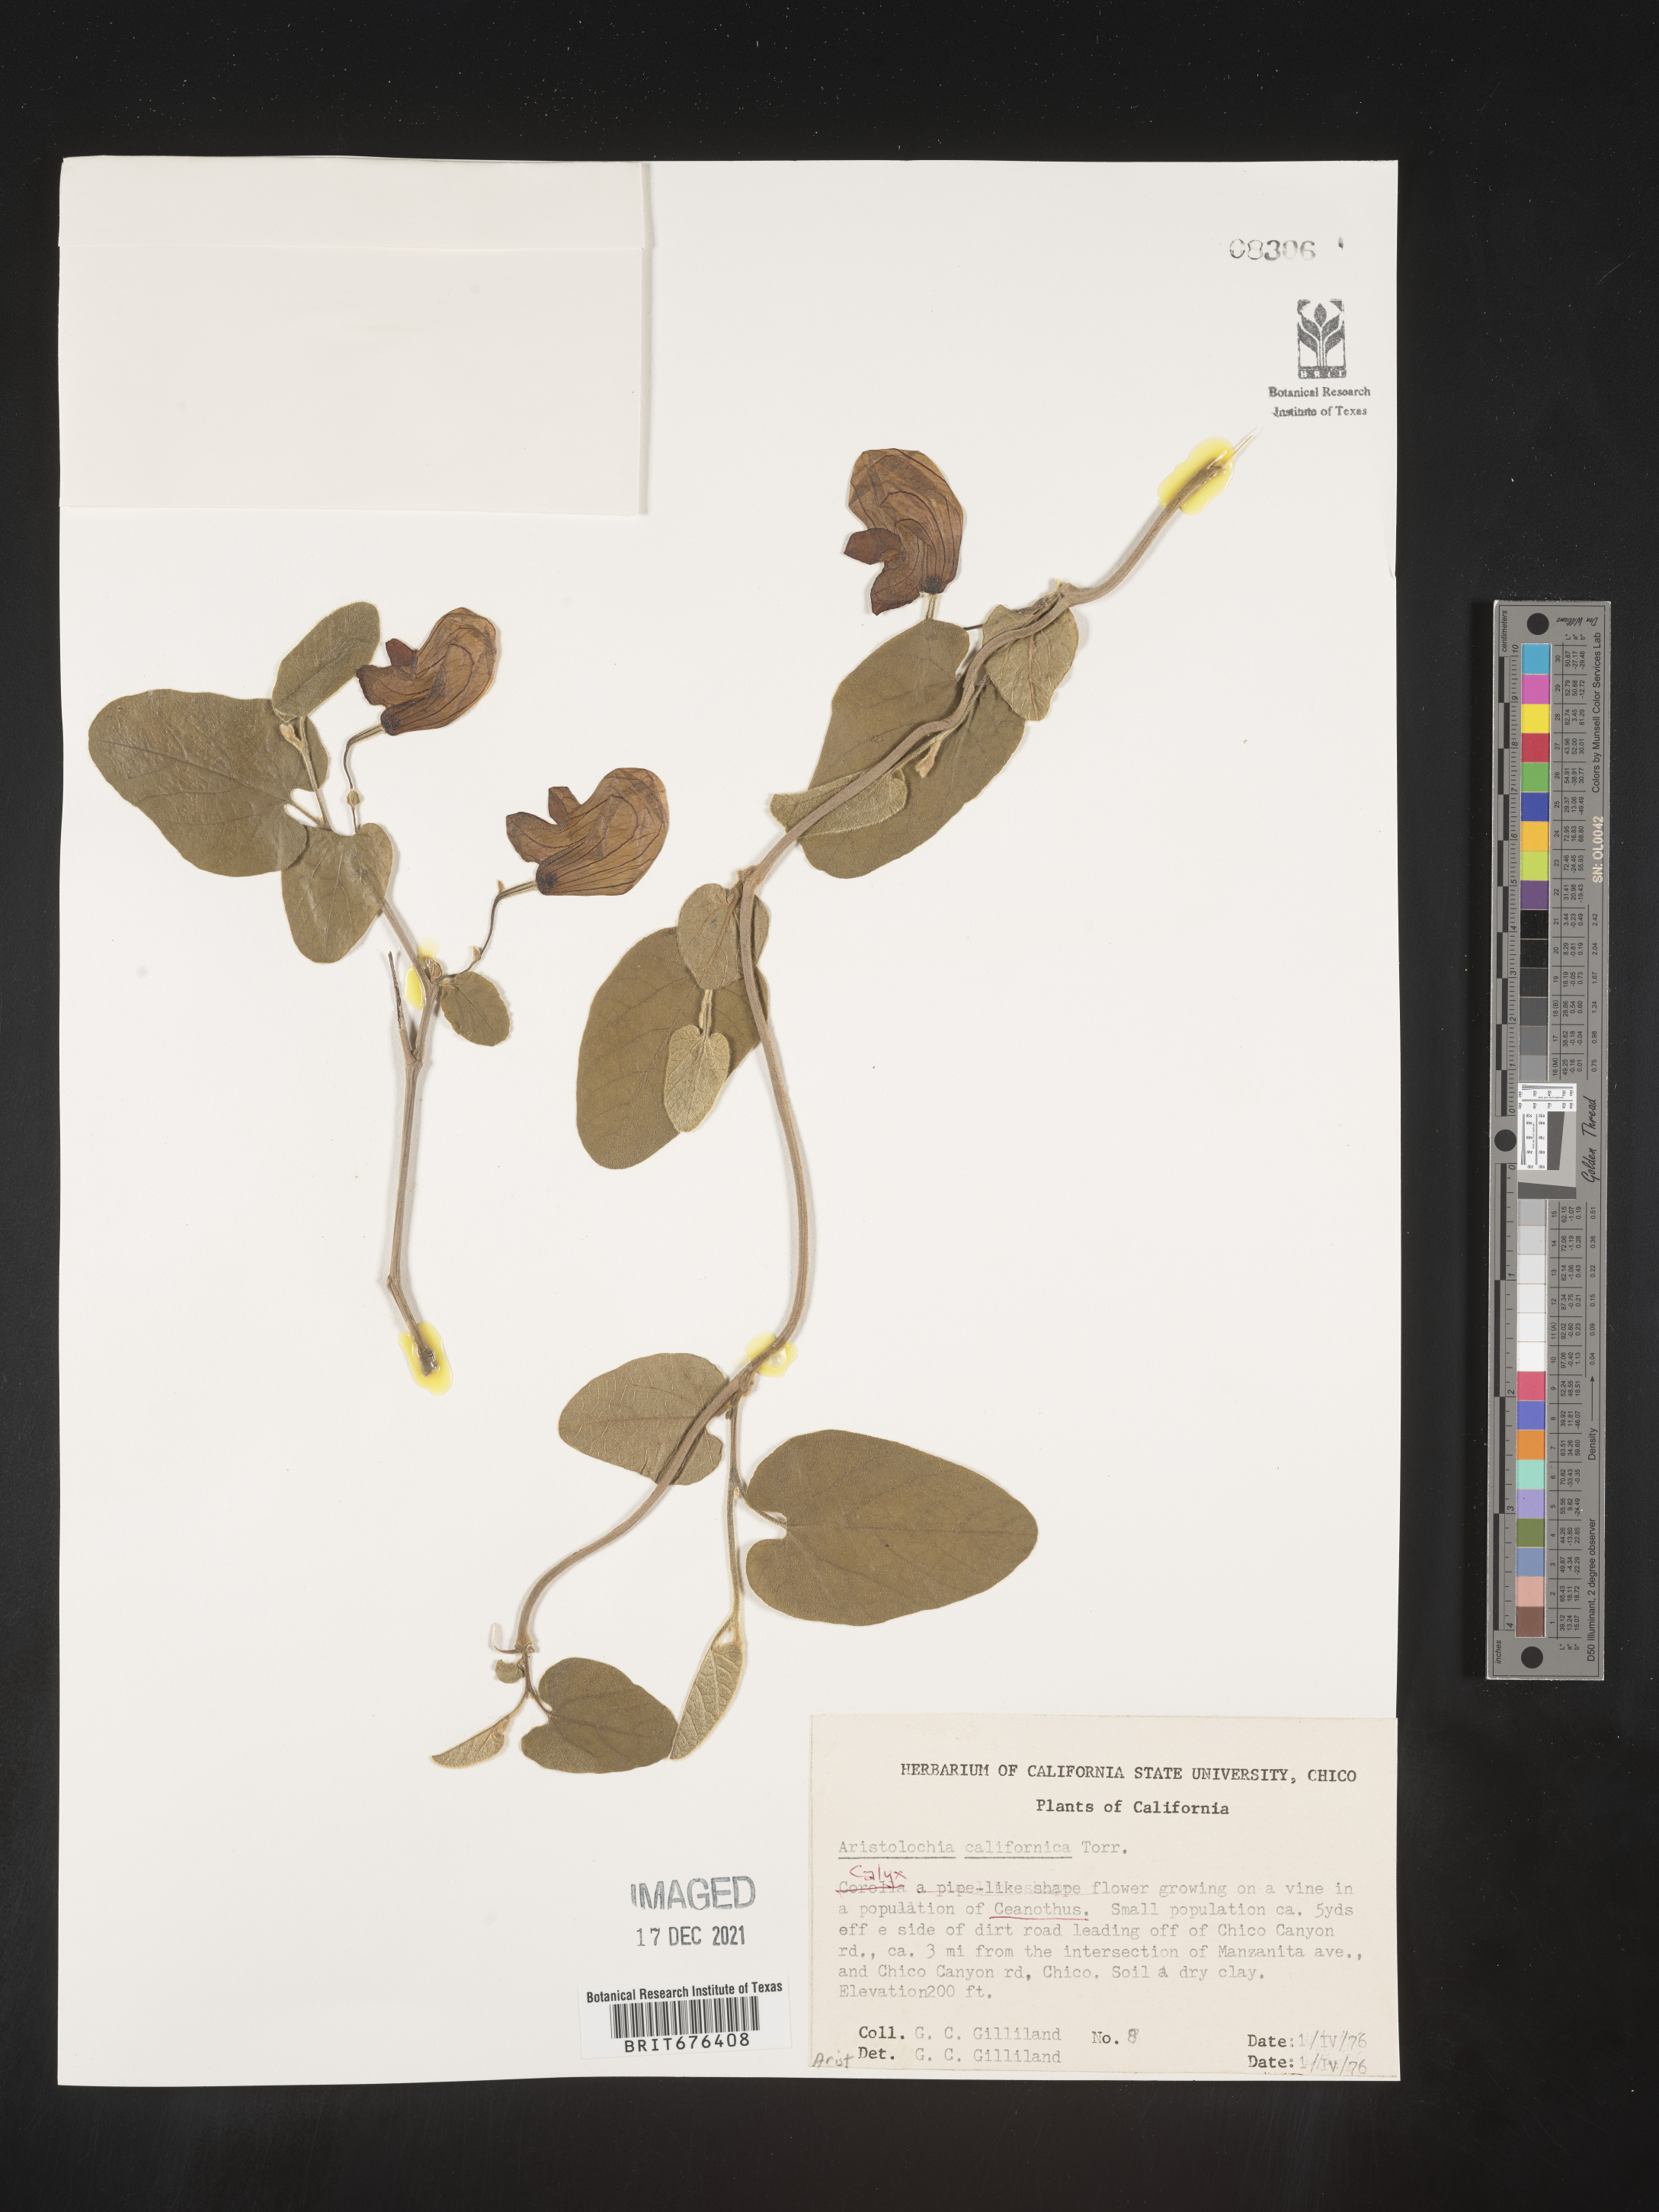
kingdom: Plantae
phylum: Tracheophyta
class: Magnoliopsida
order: Piperales
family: Aristolochiaceae
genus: Aristolochia
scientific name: Aristolochia
